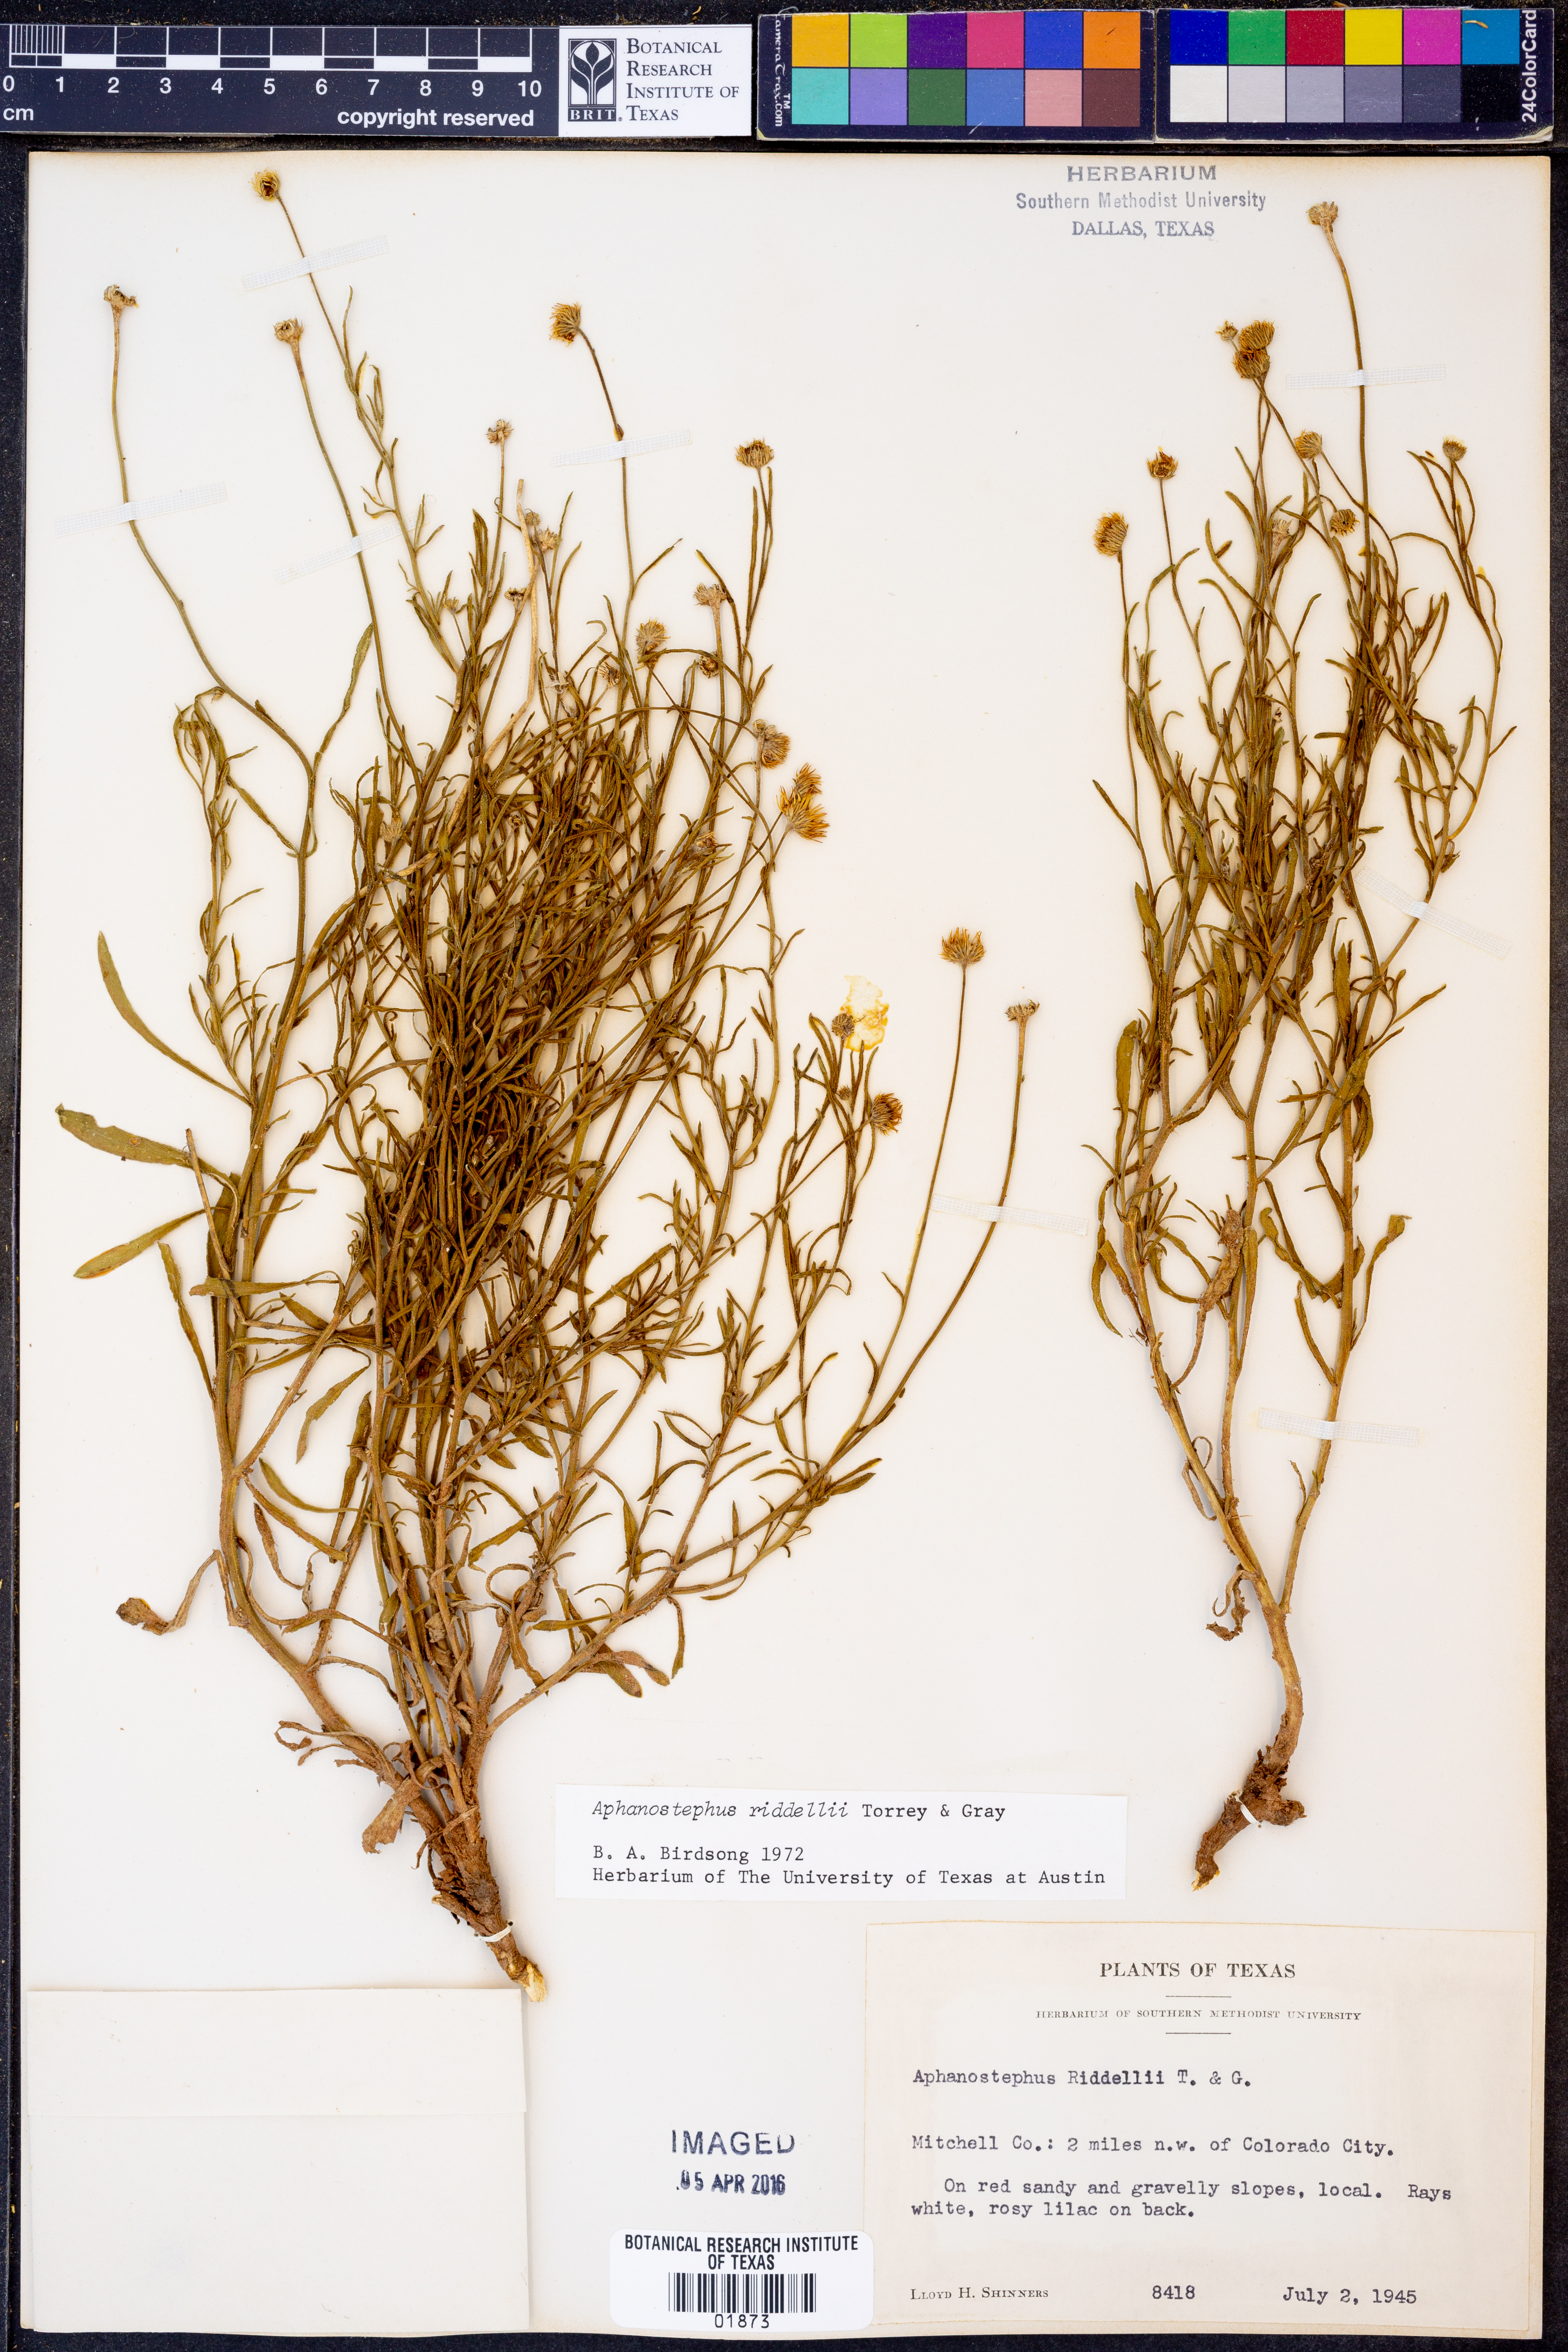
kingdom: Plantae
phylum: Tracheophyta
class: Magnoliopsida
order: Asterales
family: Asteraceae
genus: Aphanostephus
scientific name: Aphanostephus riddellii
